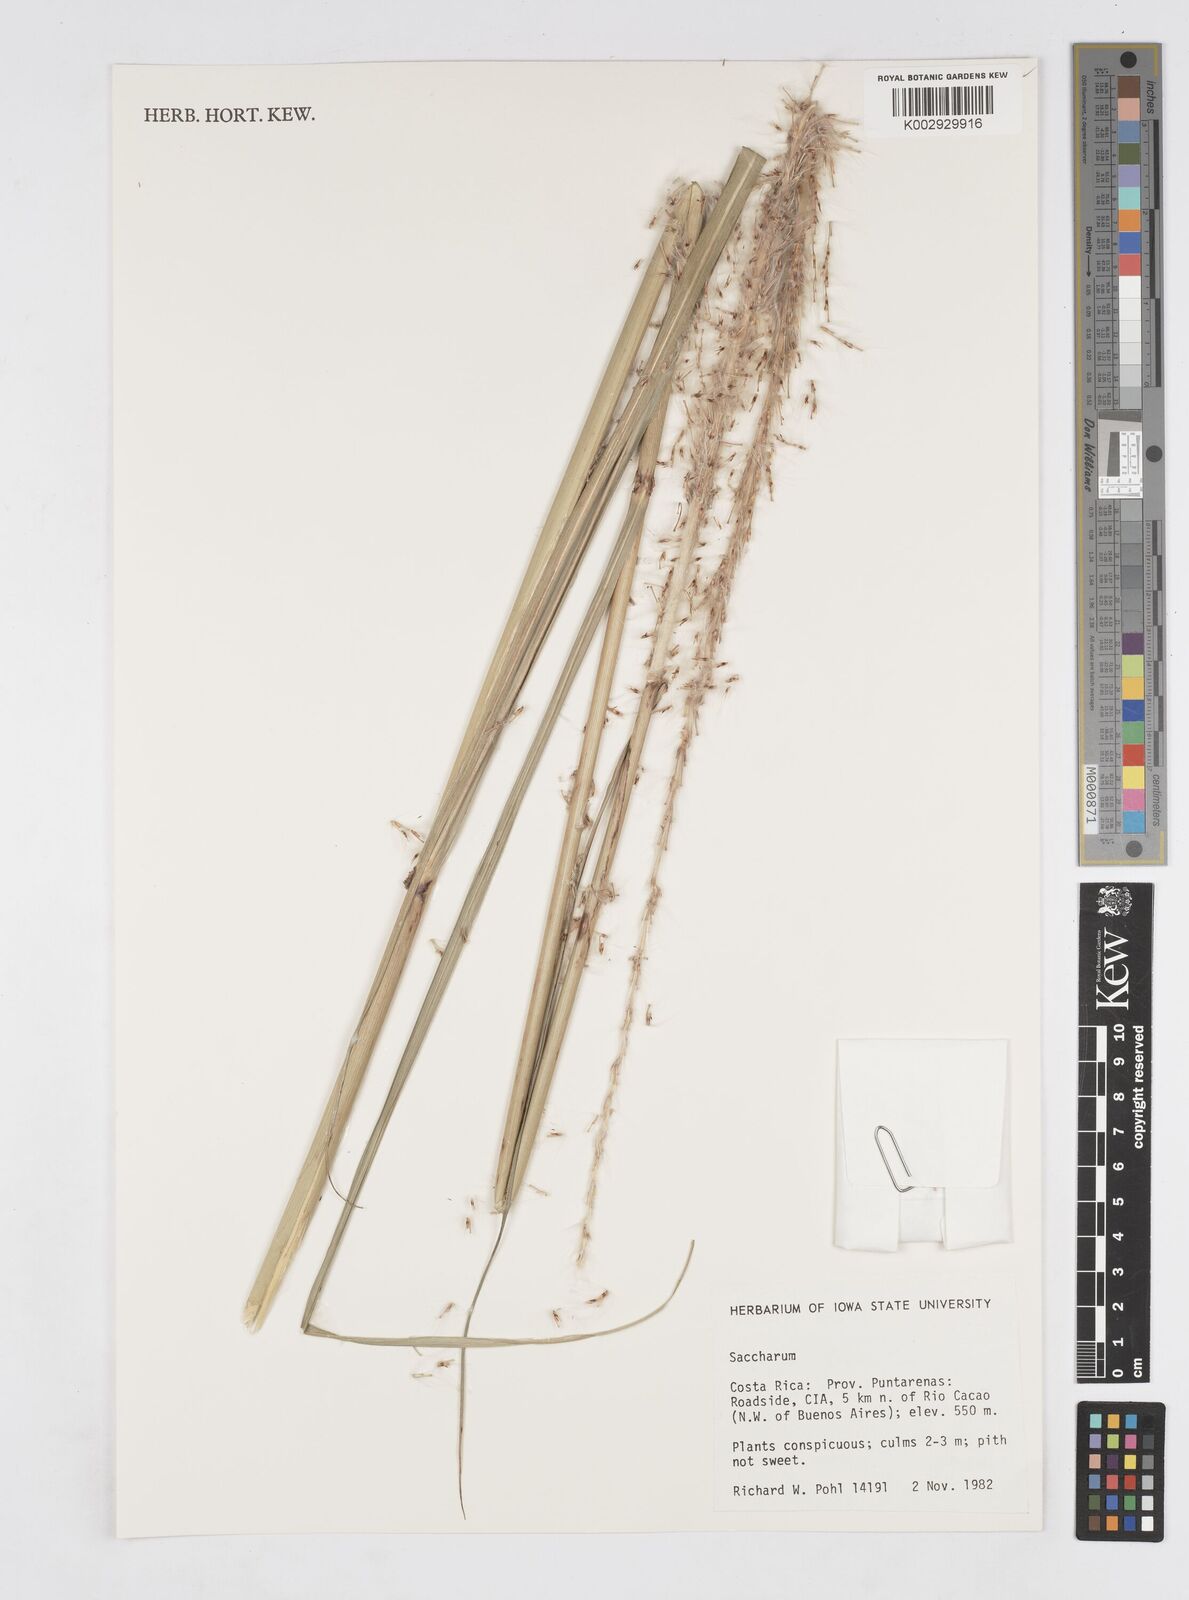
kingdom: Plantae
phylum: Tracheophyta
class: Liliopsida
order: Poales
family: Poaceae
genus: Saccharum
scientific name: Saccharum
